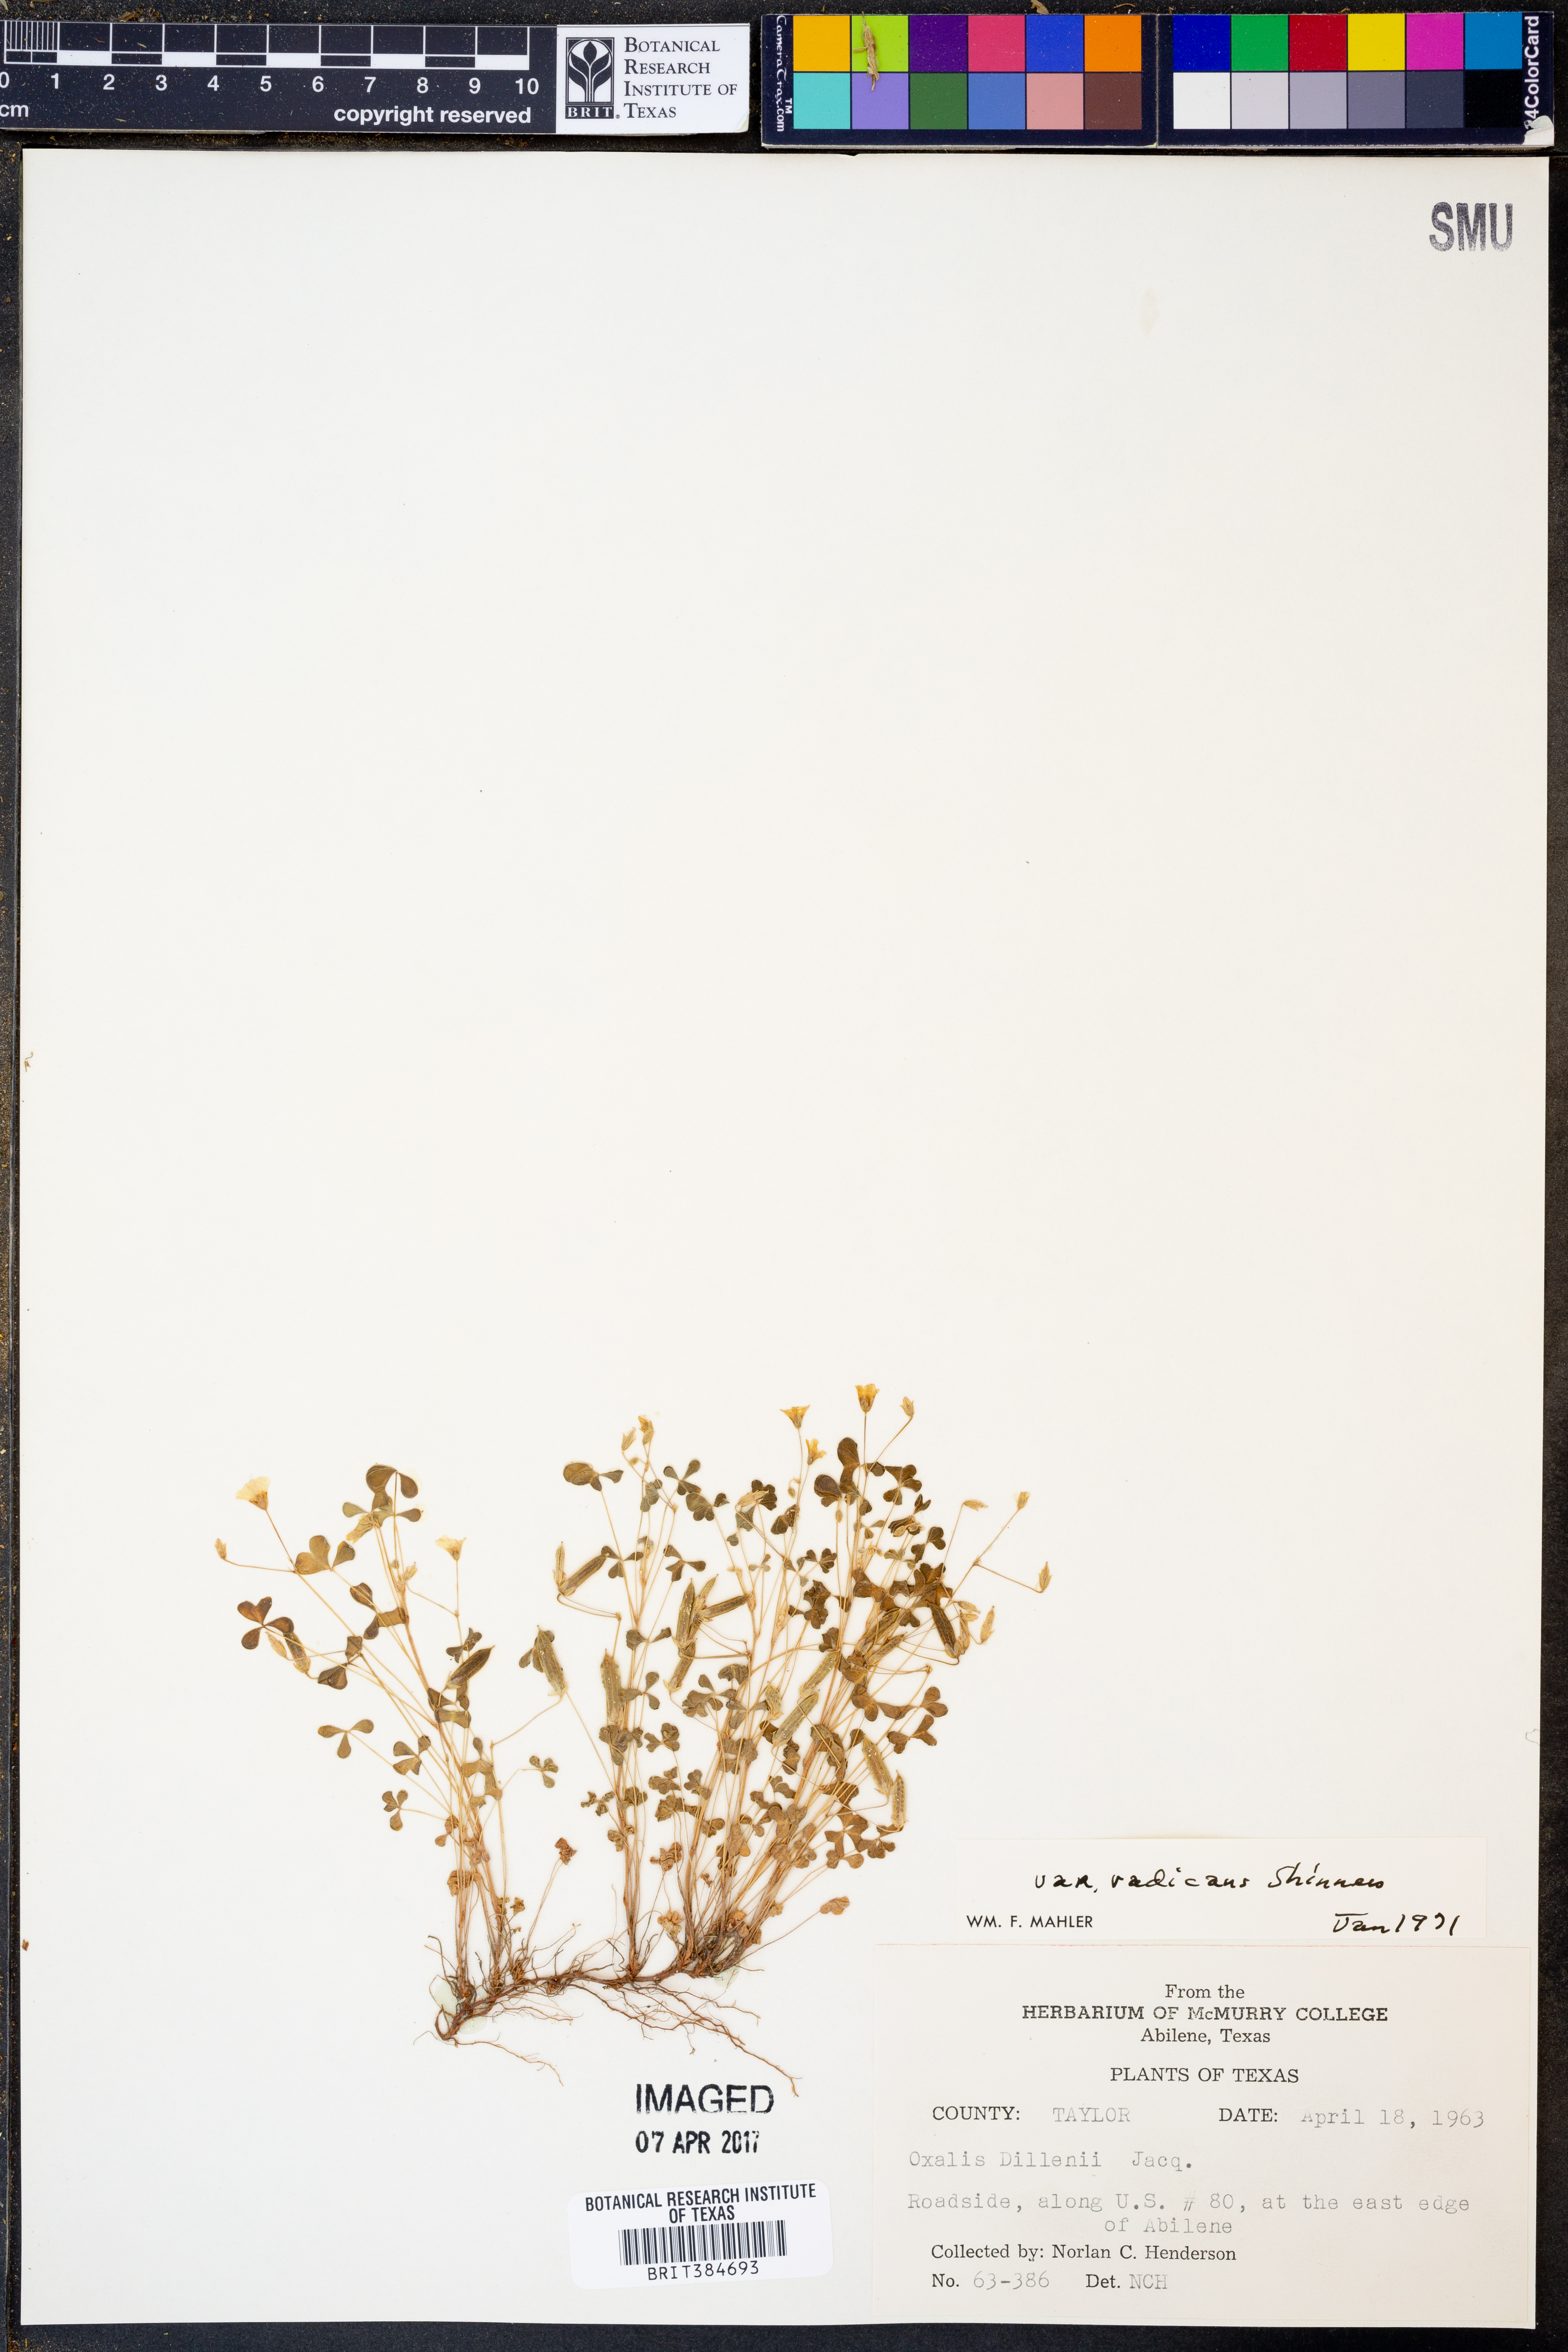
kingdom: Plantae
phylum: Tracheophyta
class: Magnoliopsida
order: Oxalidales
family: Oxalidaceae
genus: Oxalis
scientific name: Oxalis dillenii
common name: Sussex yellow-sorrel
